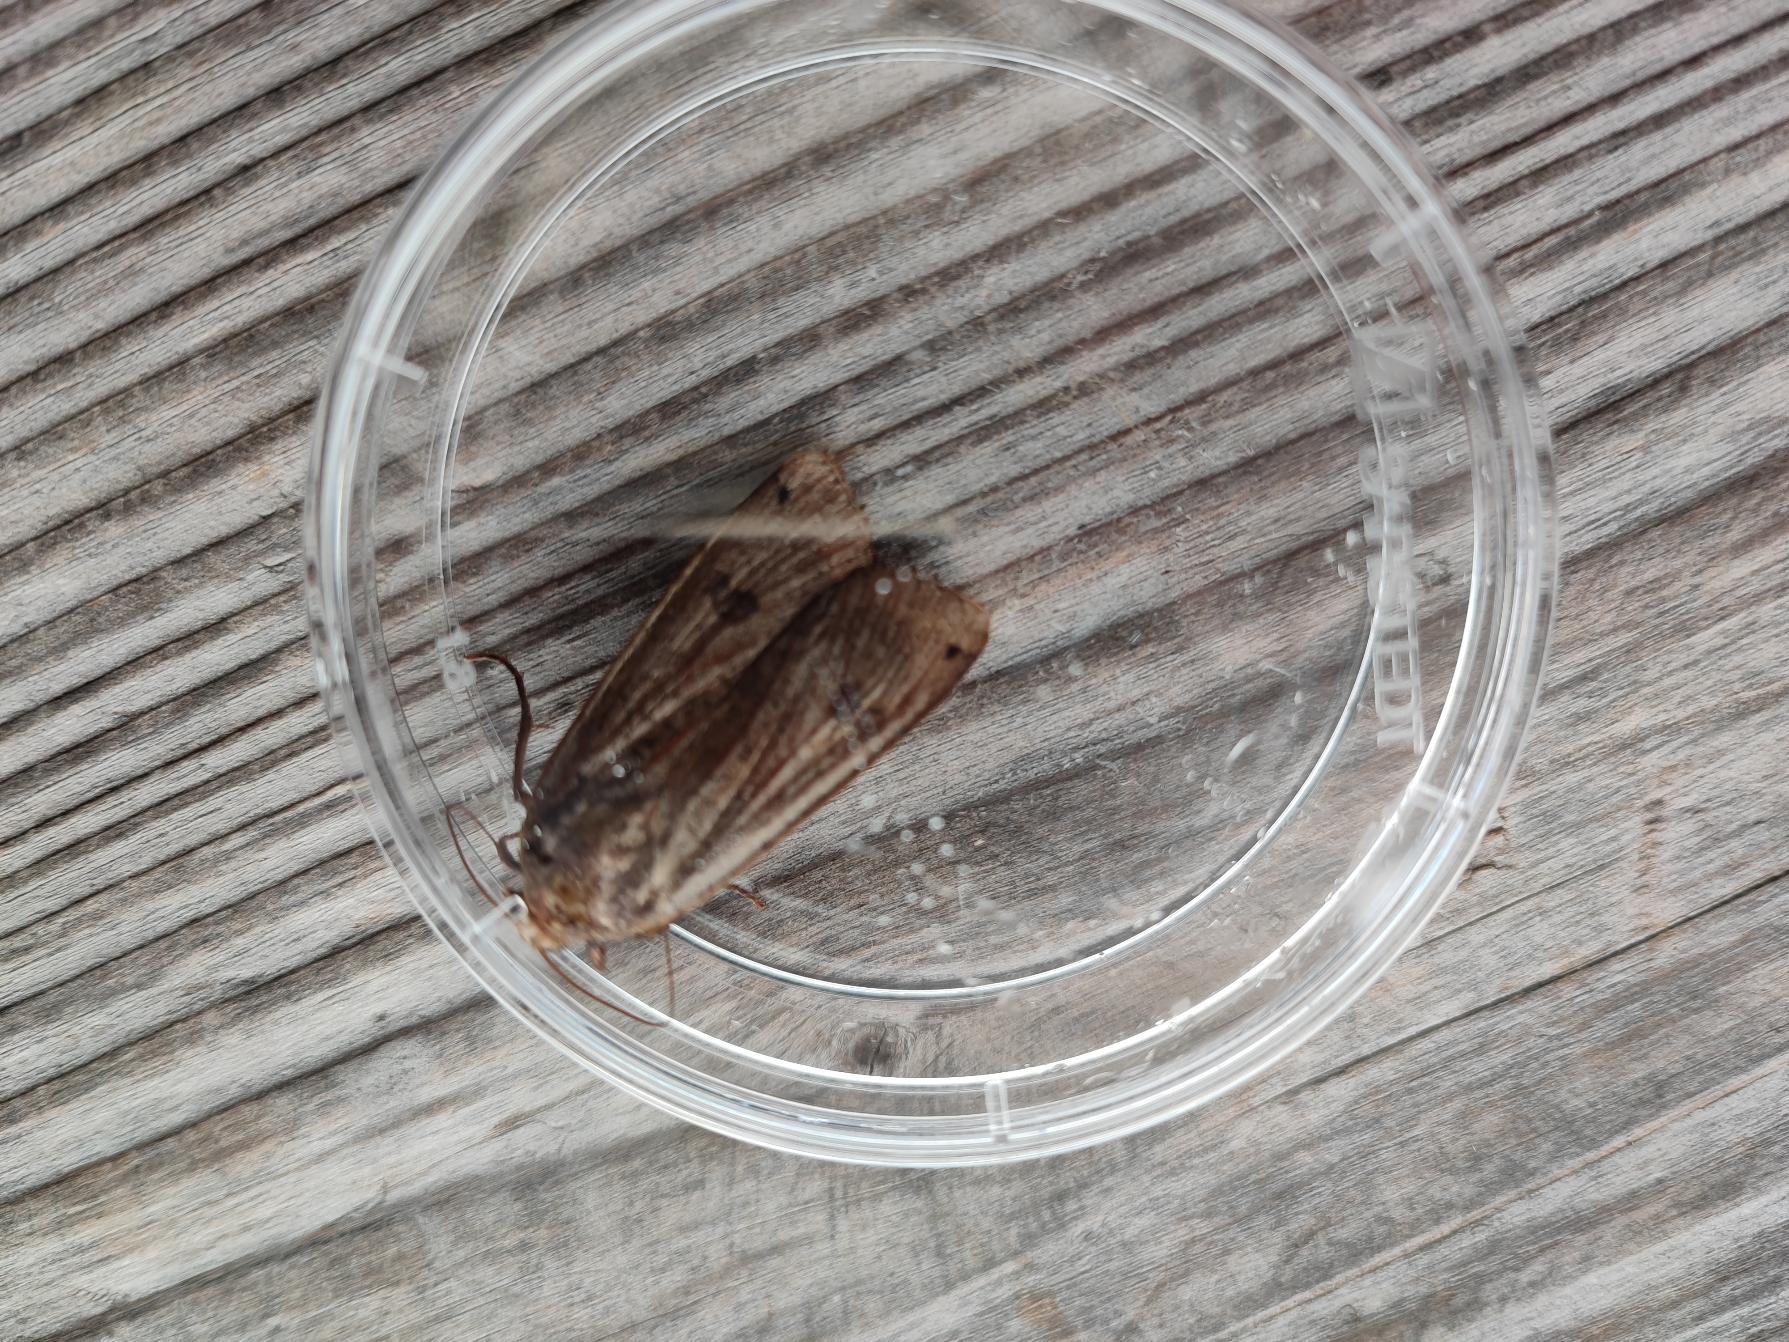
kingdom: Animalia
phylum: Arthropoda
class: Insecta
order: Lepidoptera
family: Noctuidae
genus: Noctua
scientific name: Noctua pronuba
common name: Stor smutugle
